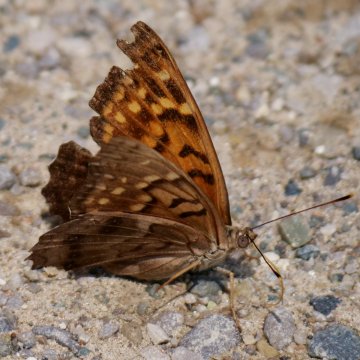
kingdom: Animalia
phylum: Arthropoda
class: Insecta
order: Lepidoptera
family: Nymphalidae
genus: Asterocampa
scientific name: Asterocampa clyton
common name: Tawny Emperor
